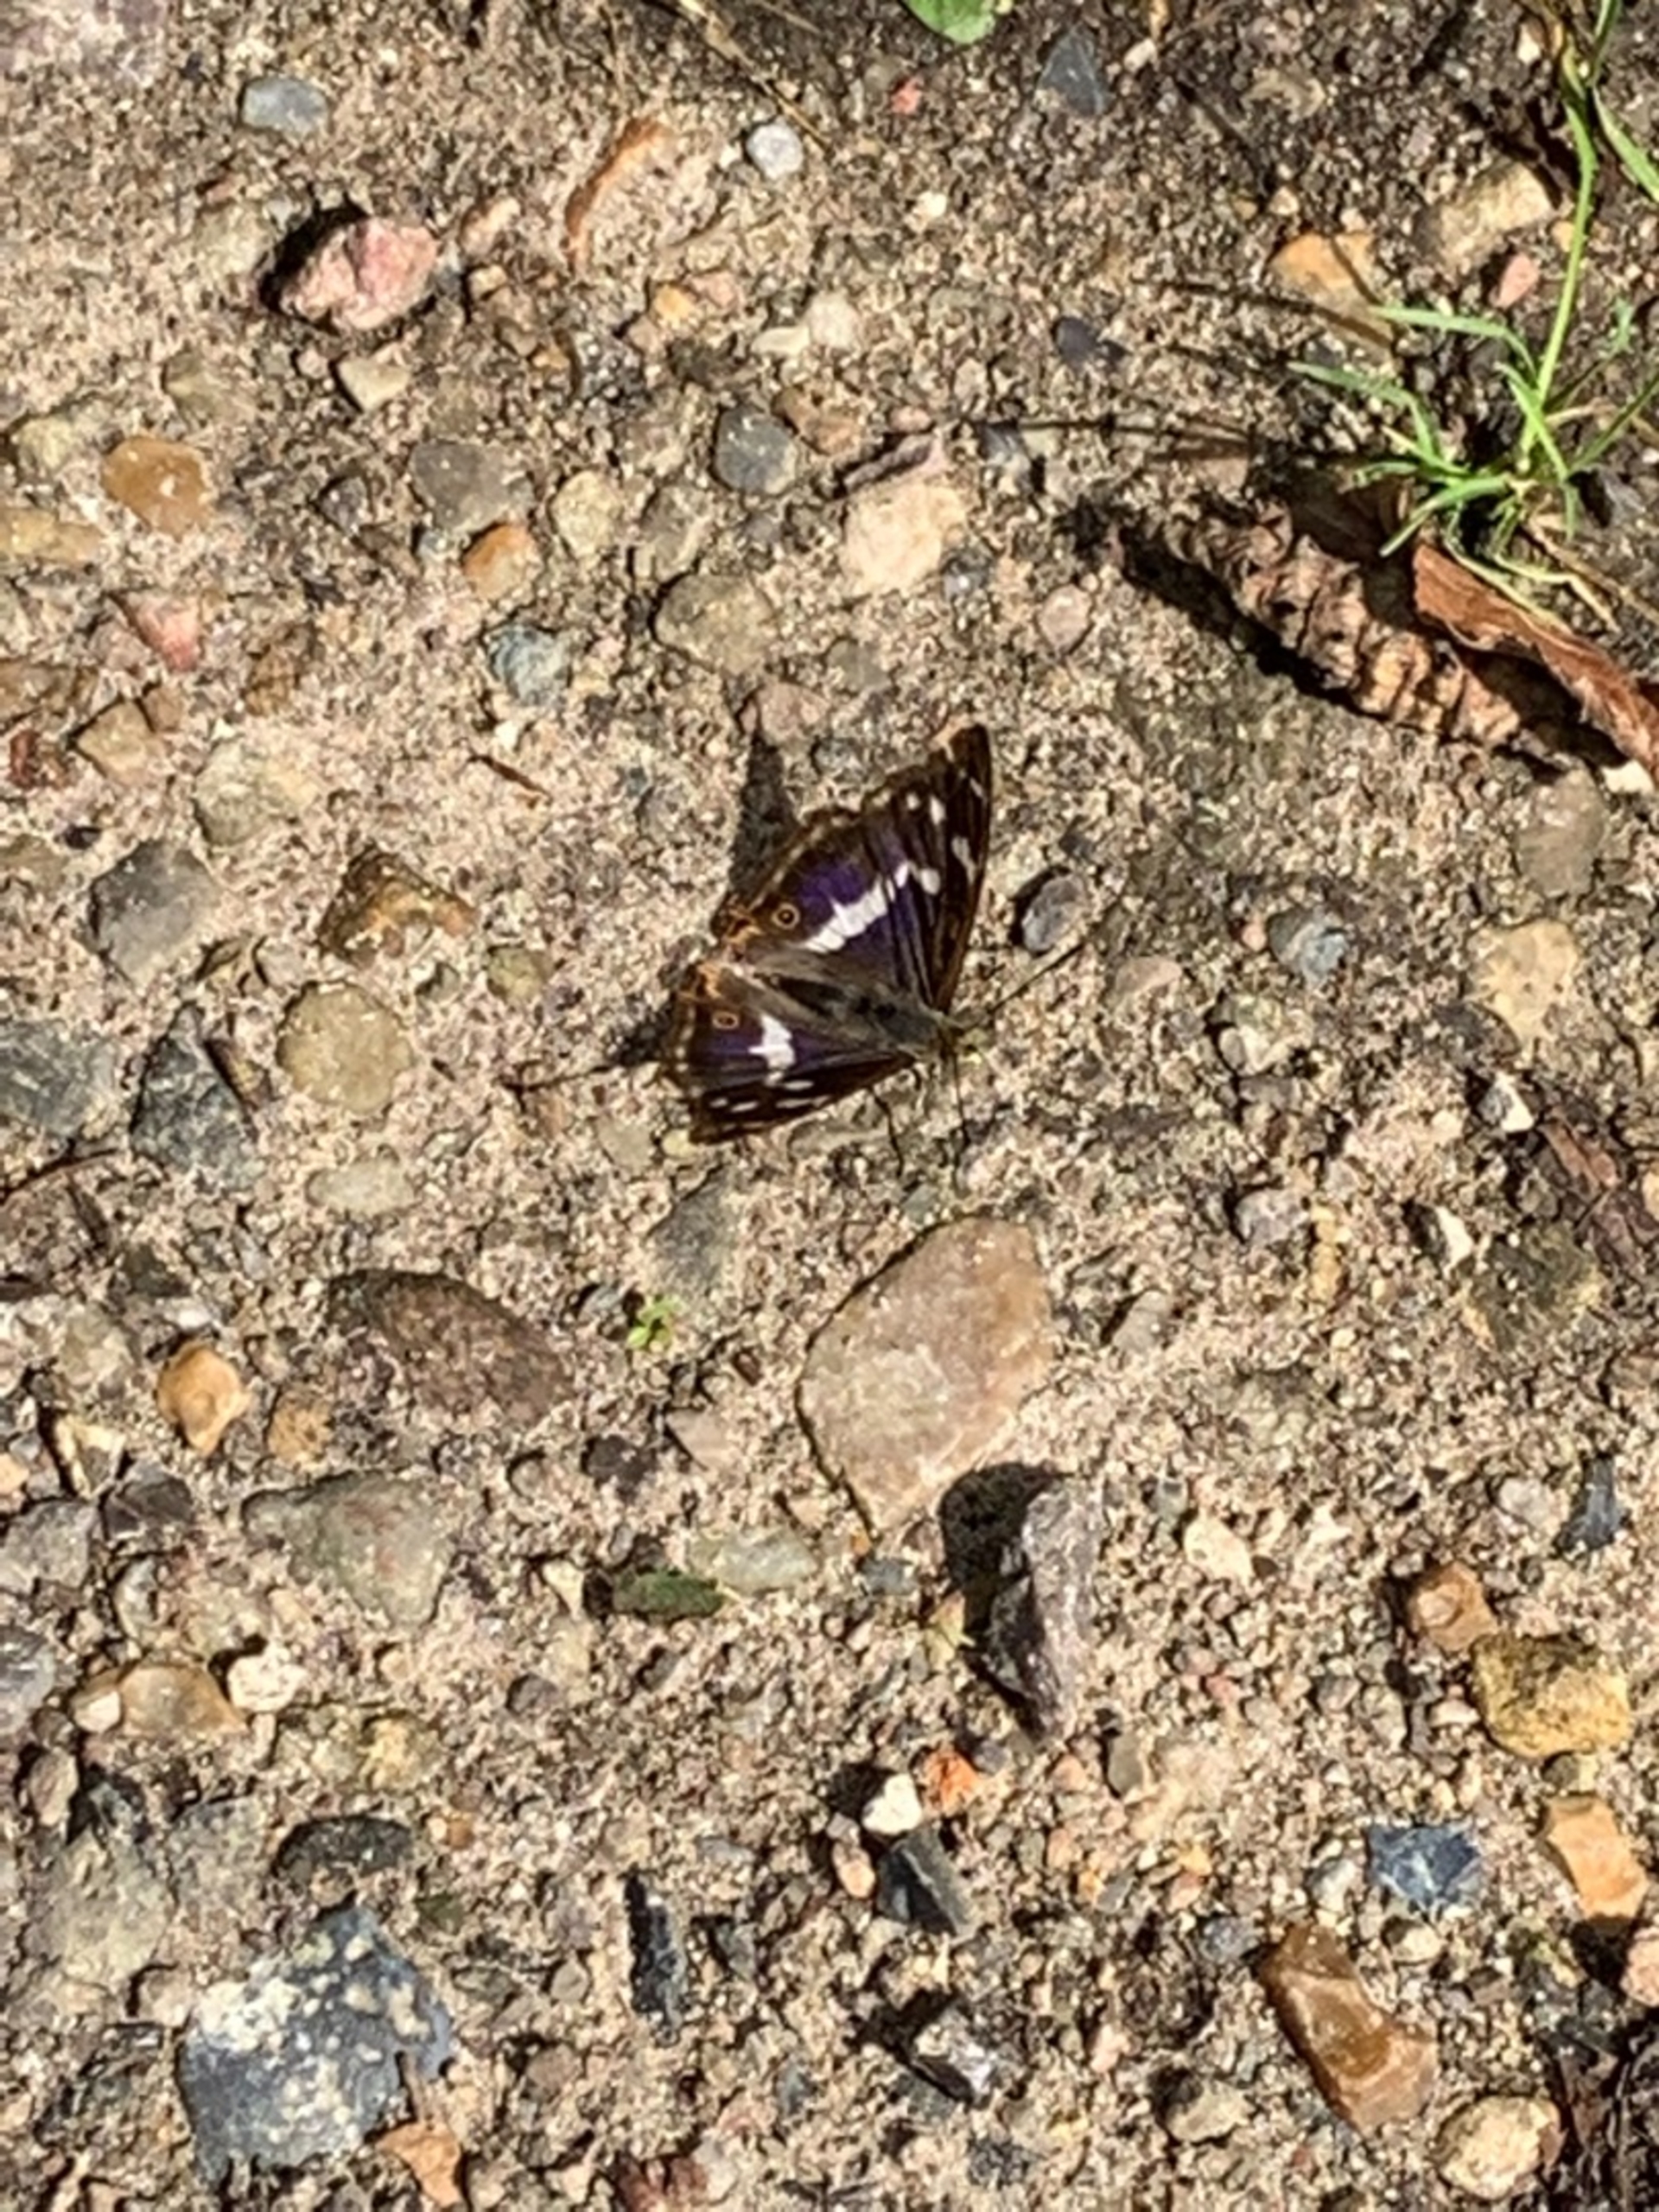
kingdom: Animalia
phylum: Arthropoda
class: Insecta
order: Lepidoptera
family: Nymphalidae
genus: Apatura
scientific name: Apatura iris
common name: Iris
